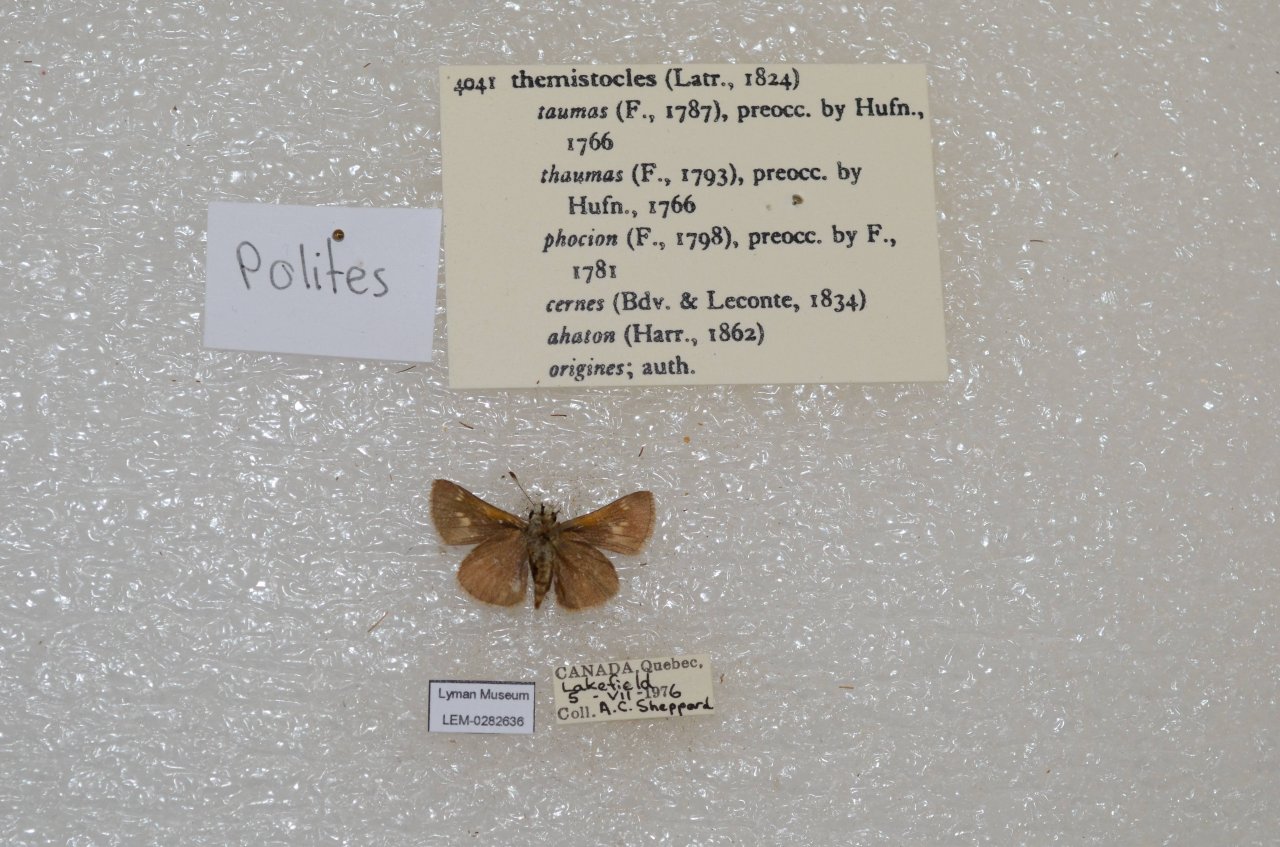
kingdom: Animalia
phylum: Arthropoda
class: Insecta
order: Lepidoptera
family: Hesperiidae
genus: Polites
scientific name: Polites themistocles
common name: Tawny-edged Skipper
